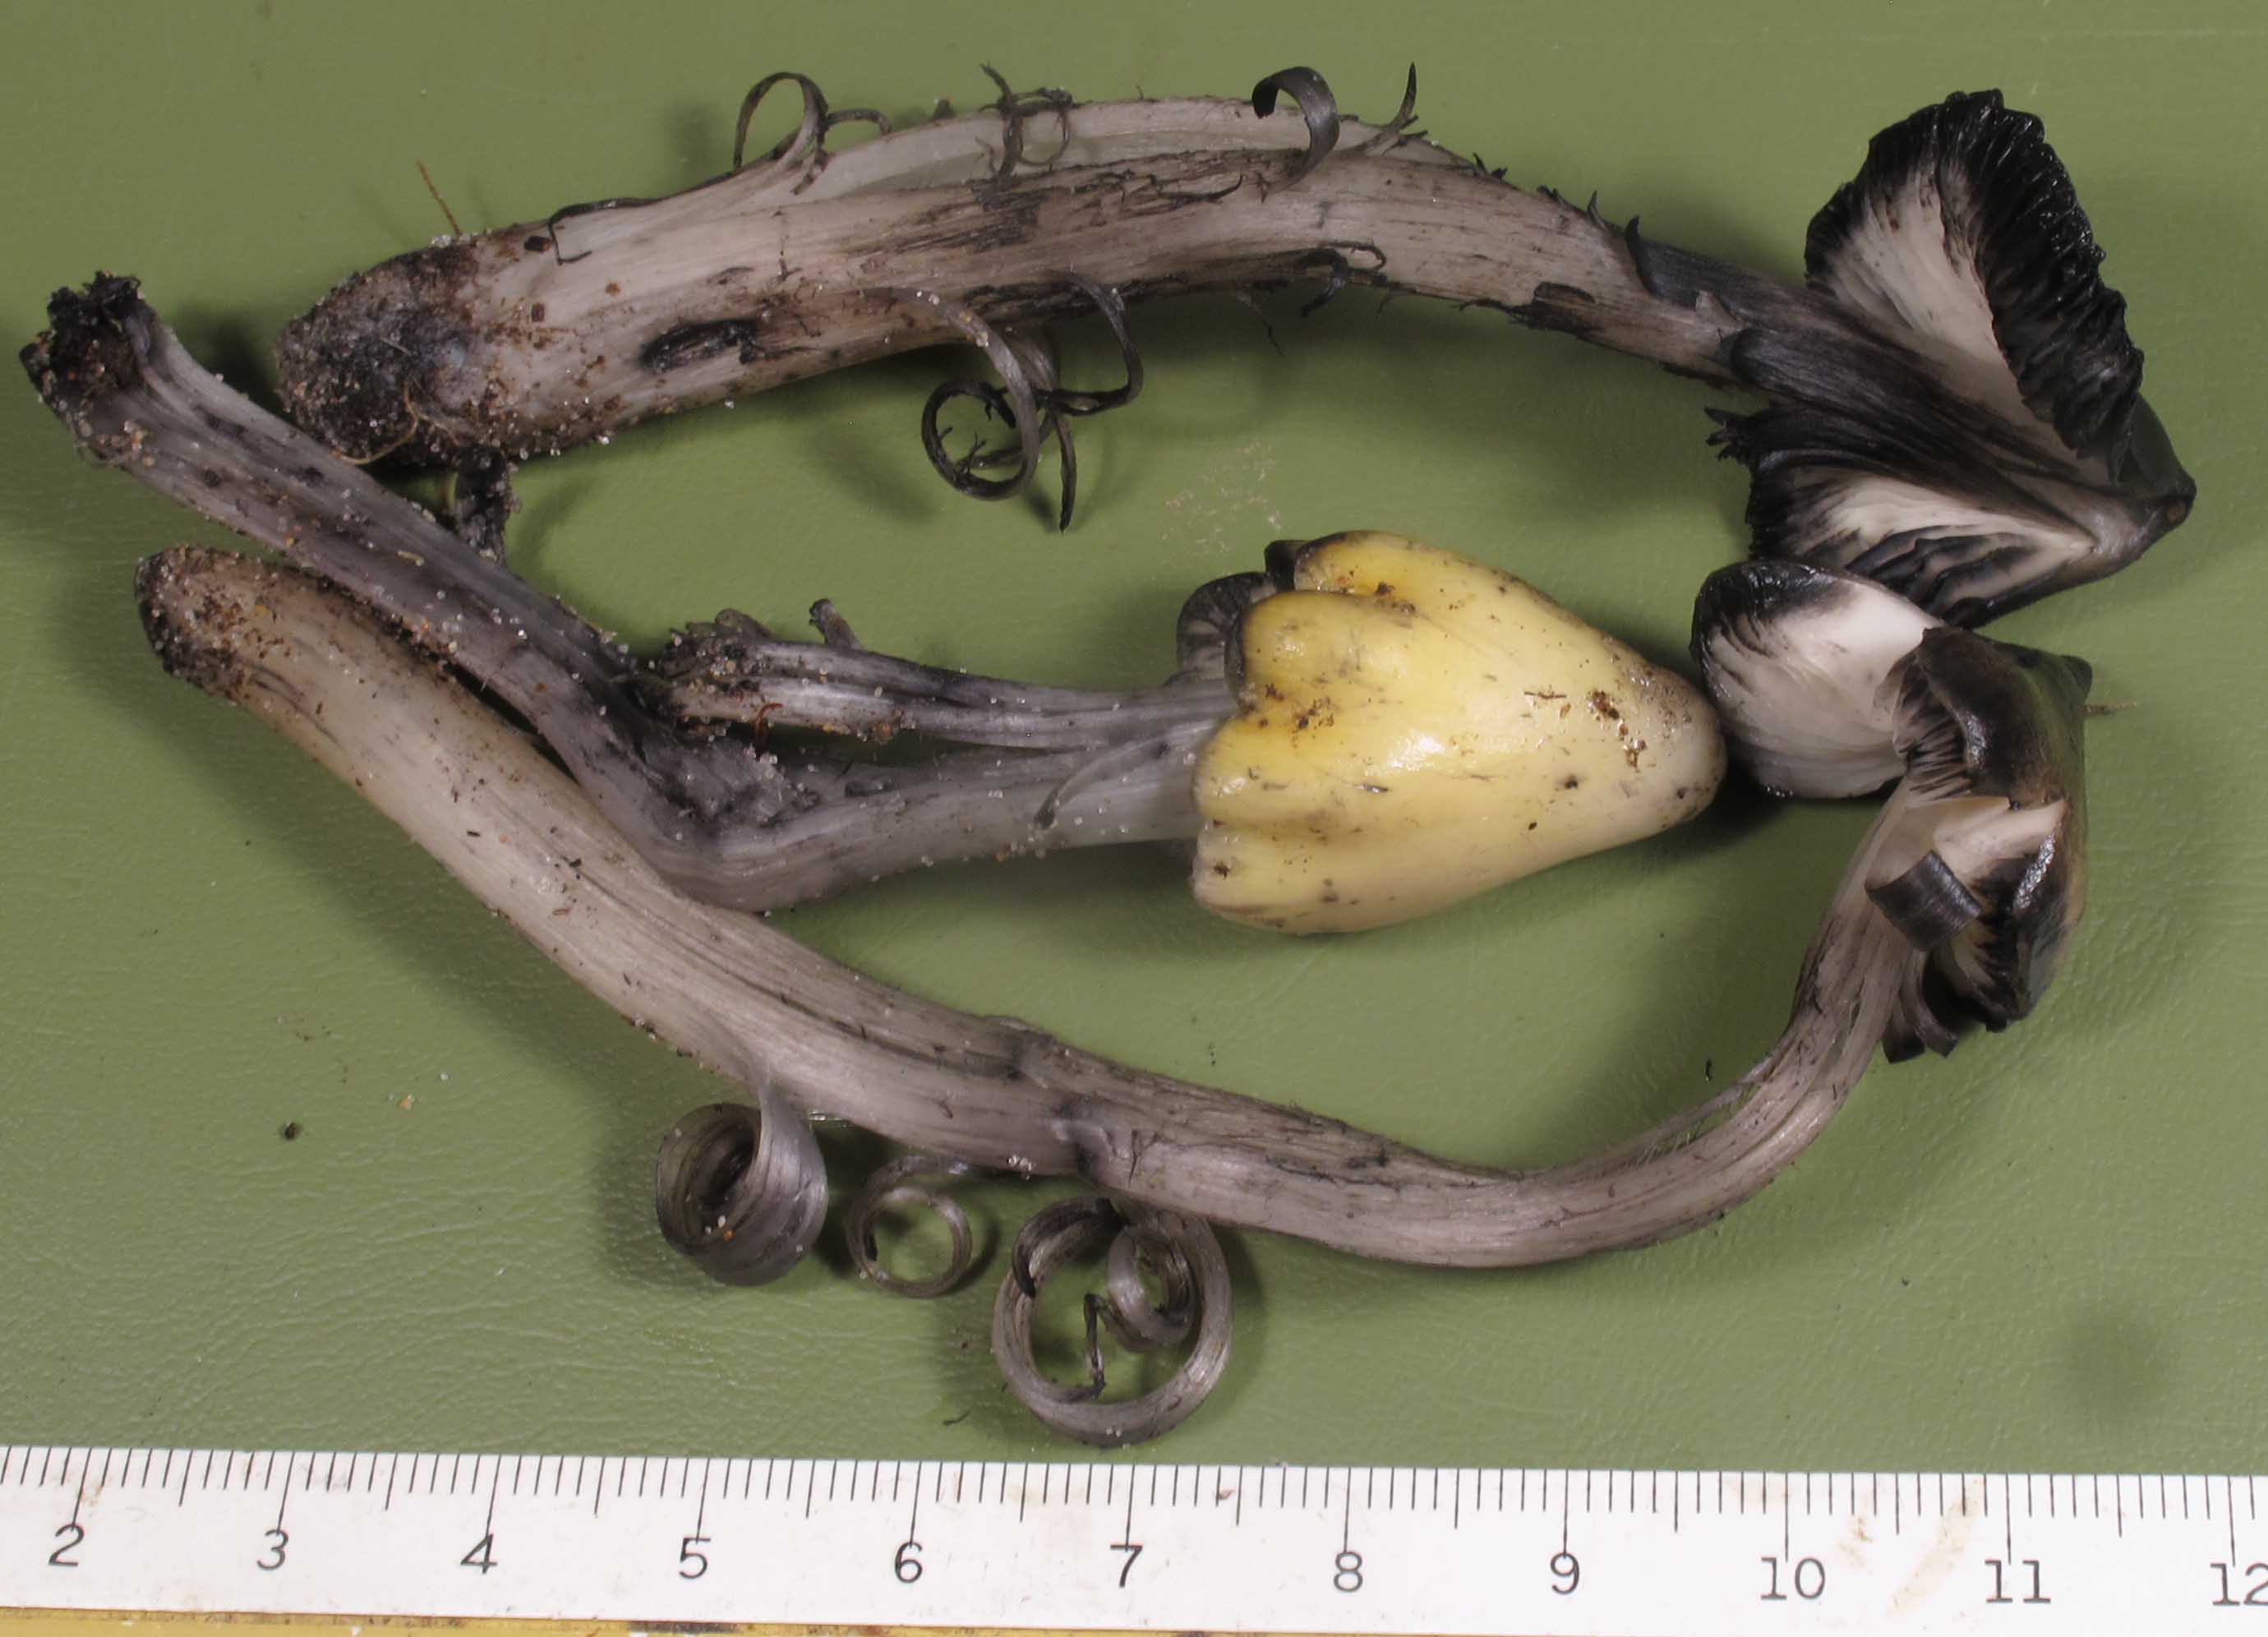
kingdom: Fungi
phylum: Basidiomycota
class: Agaricomycetes
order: Agaricales
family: Hygrophoraceae
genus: Hygrocybe
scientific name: Hygrocybe conica
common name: oliven-vokshat
